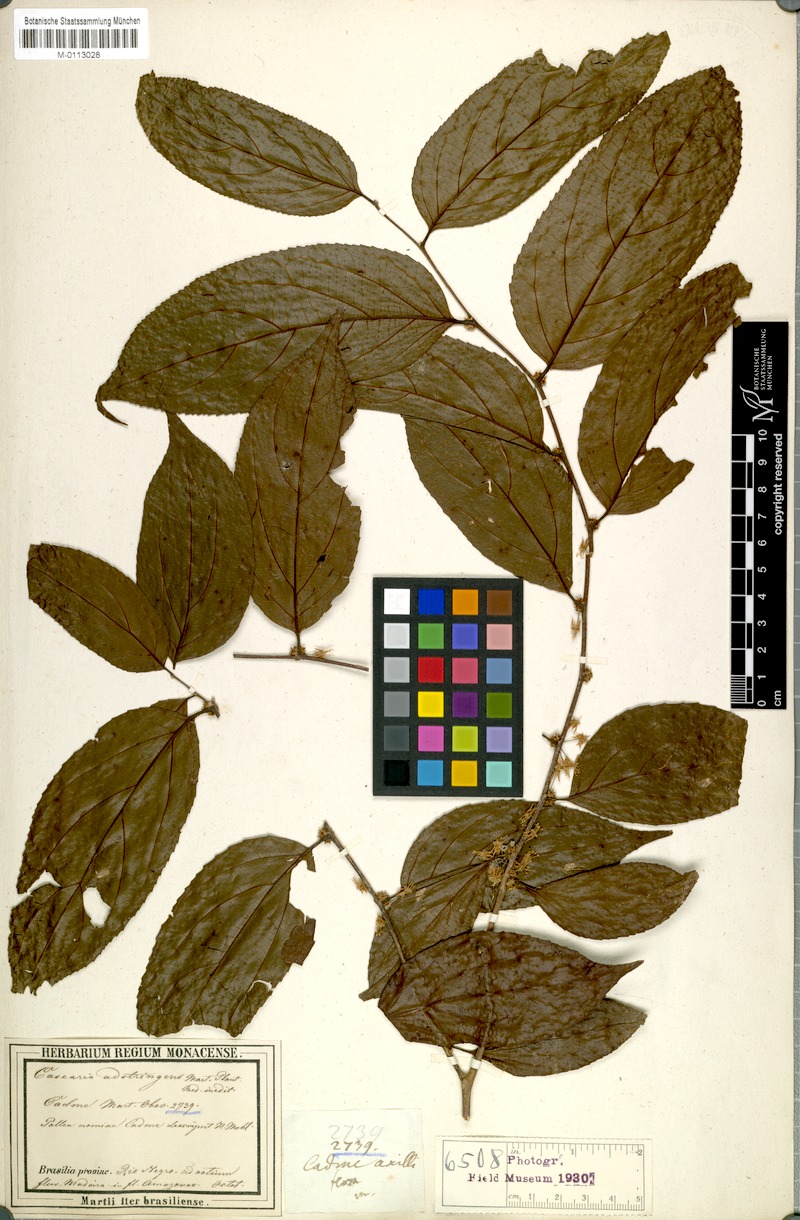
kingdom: Plantae
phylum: Tracheophyta
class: Magnoliopsida
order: Malpighiales
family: Salicaceae
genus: Casearia
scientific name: Casearia decandra
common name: Crack open
